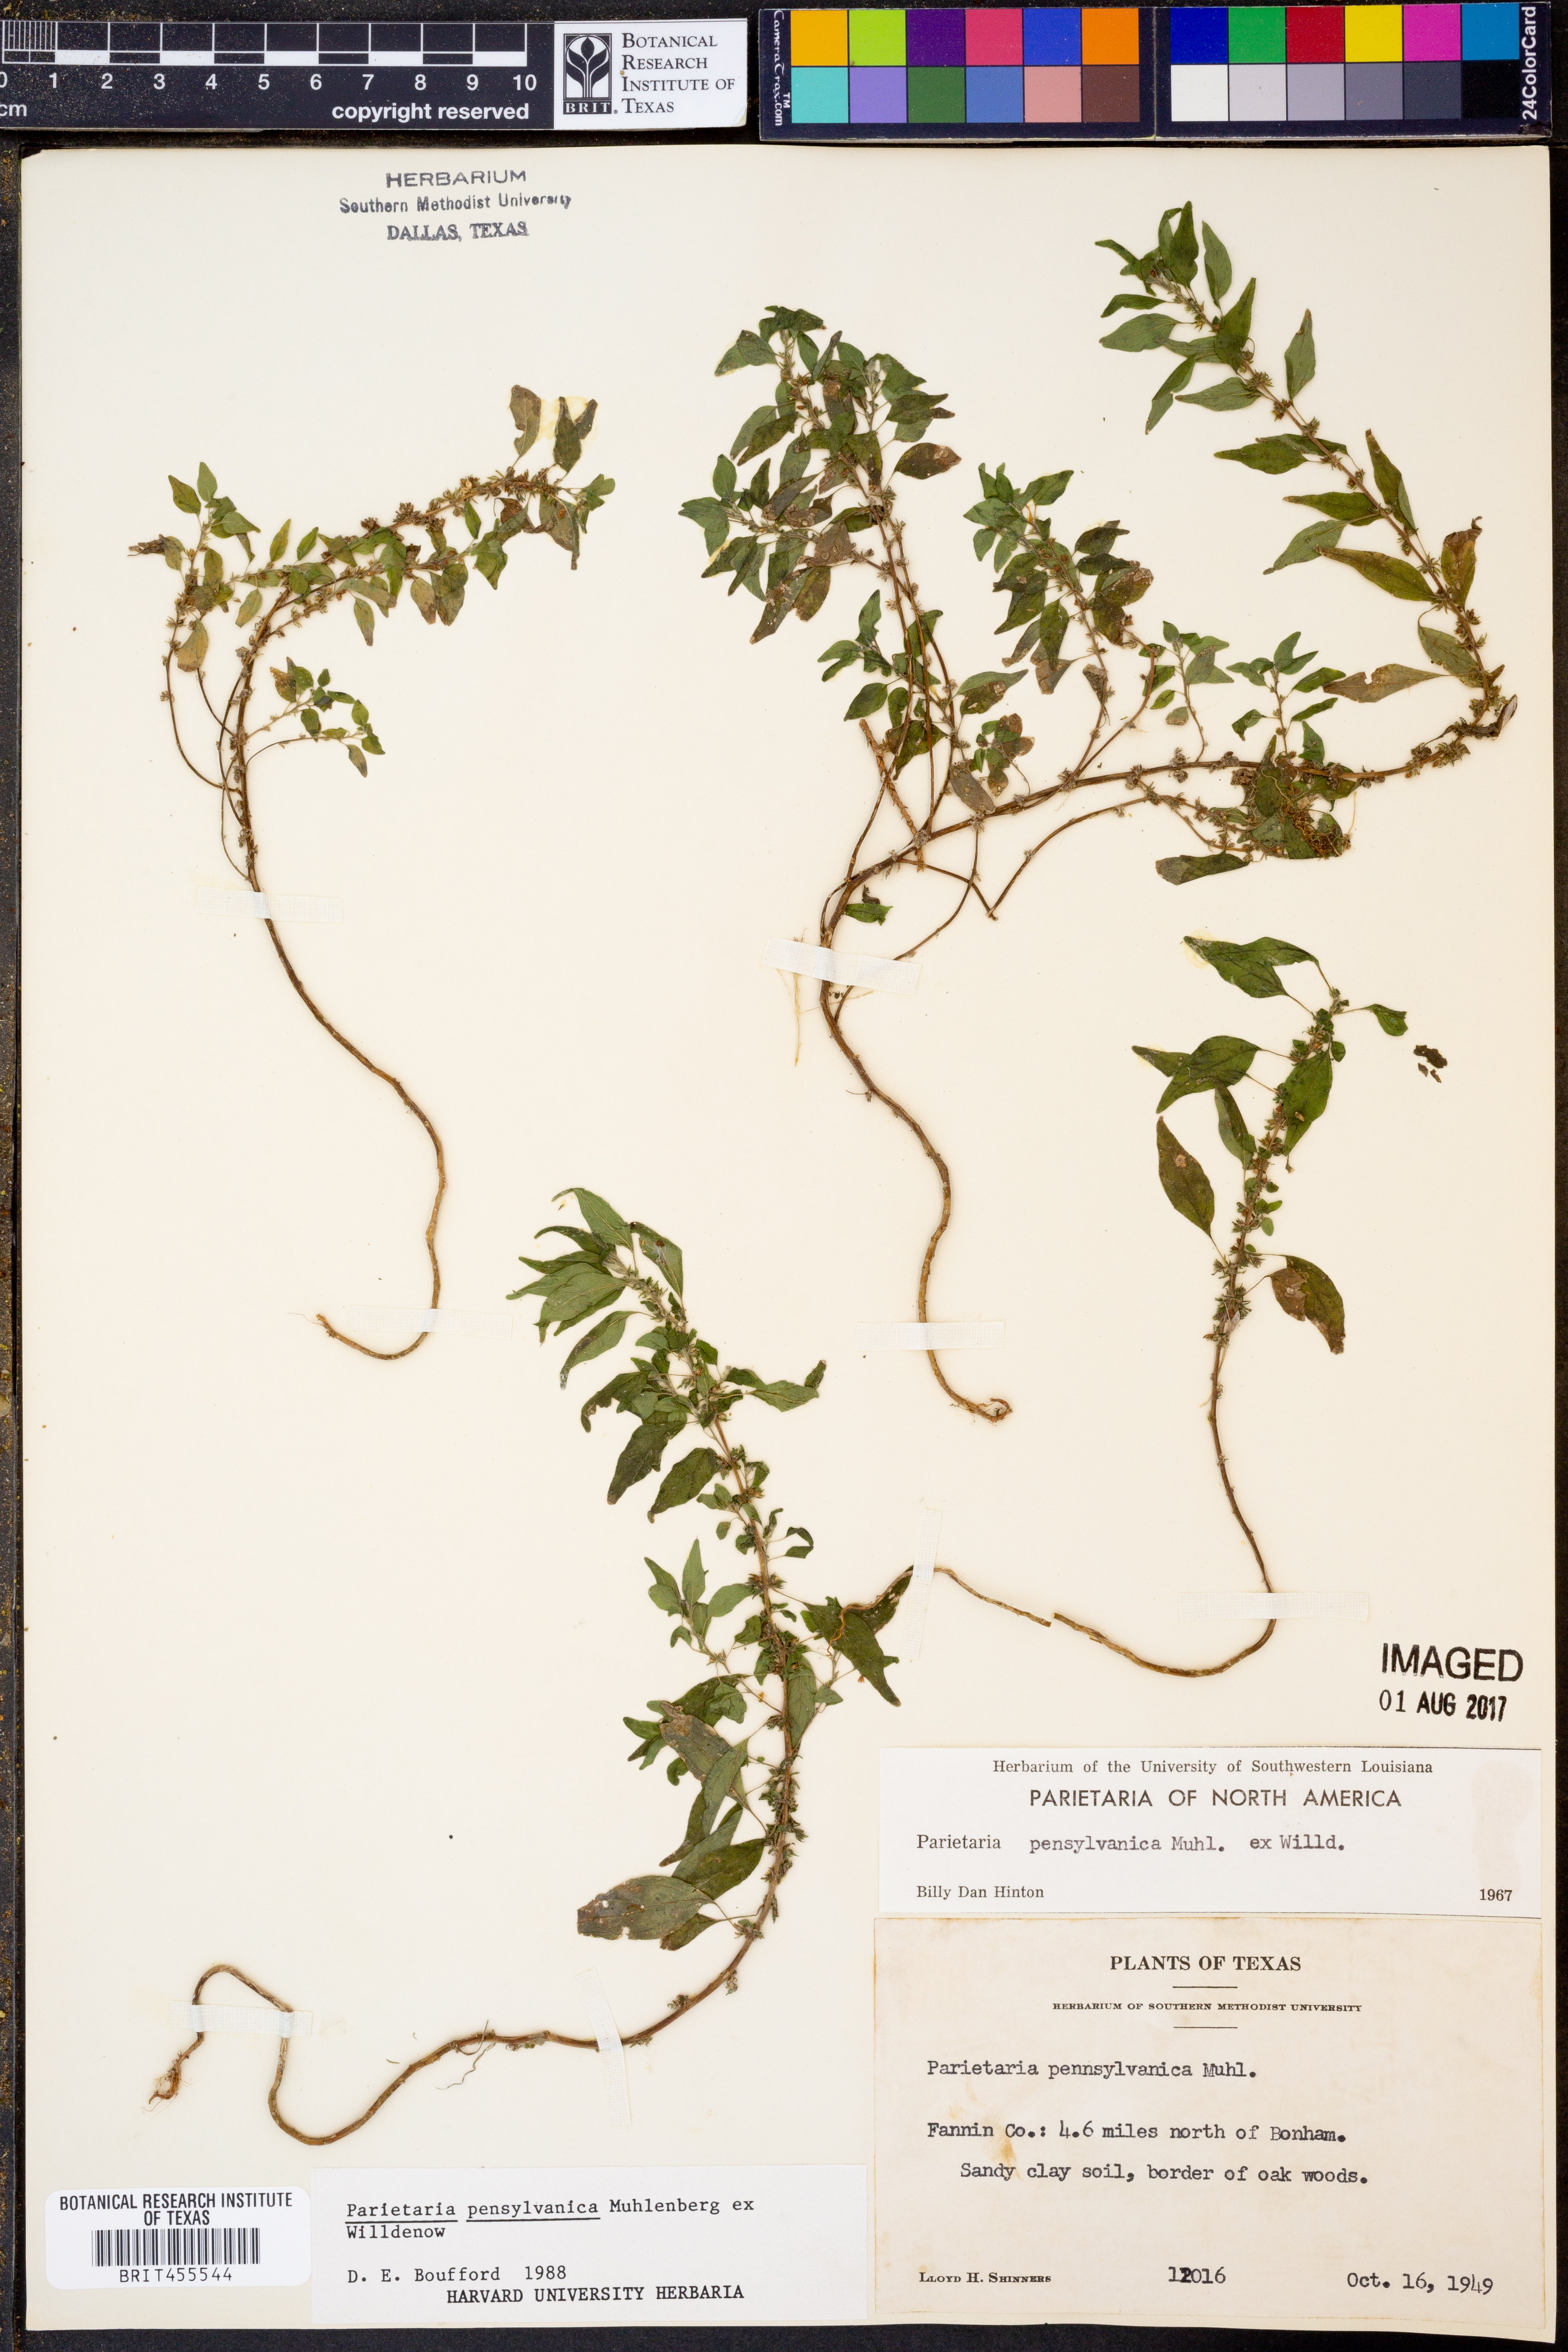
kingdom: Plantae
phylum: Tracheophyta
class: Magnoliopsida
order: Rosales
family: Urticaceae
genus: Parietaria
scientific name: Parietaria pensylvanica
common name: Pennsylvania pellitory
